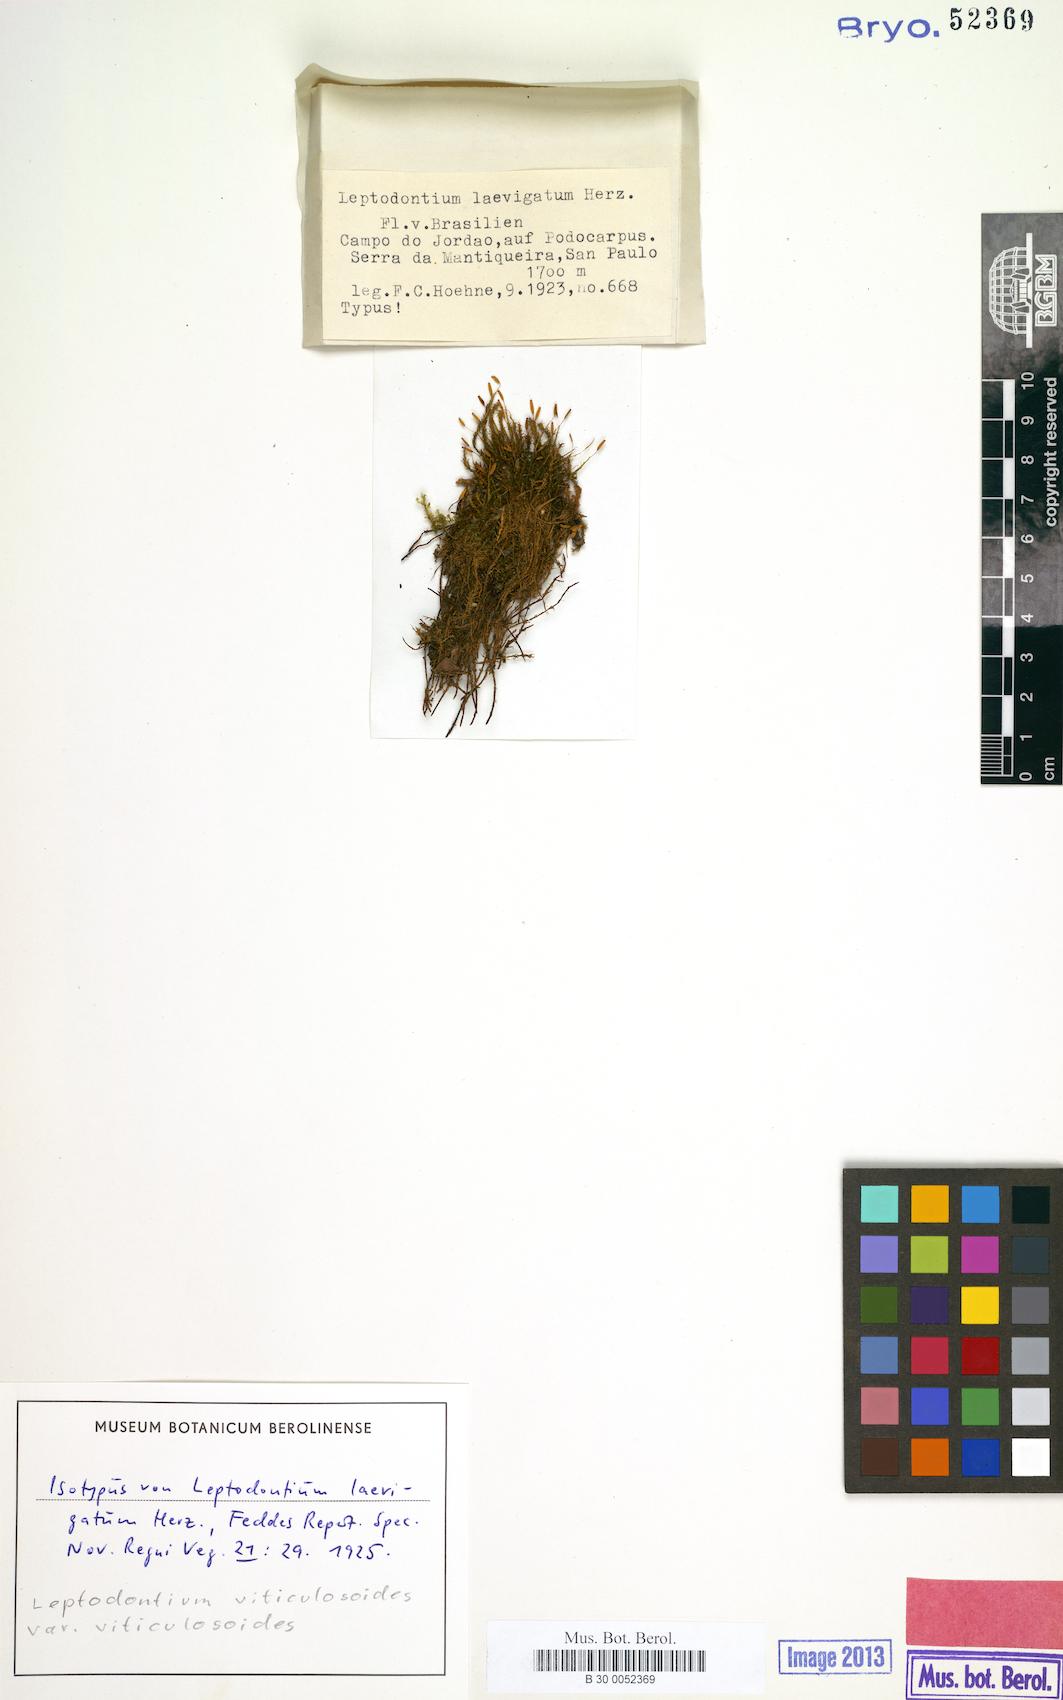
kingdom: Plantae
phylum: Bryophyta
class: Bryopsida
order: Pottiales
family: Pottiaceae
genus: Leptodontium
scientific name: Leptodontium viticulosoides
